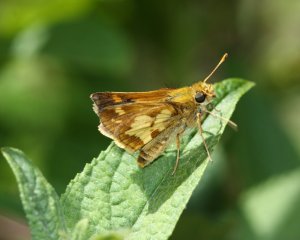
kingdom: Animalia
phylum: Arthropoda
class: Insecta
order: Lepidoptera
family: Hesperiidae
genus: Polites
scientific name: Polites coras
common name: Peck's Skipper
